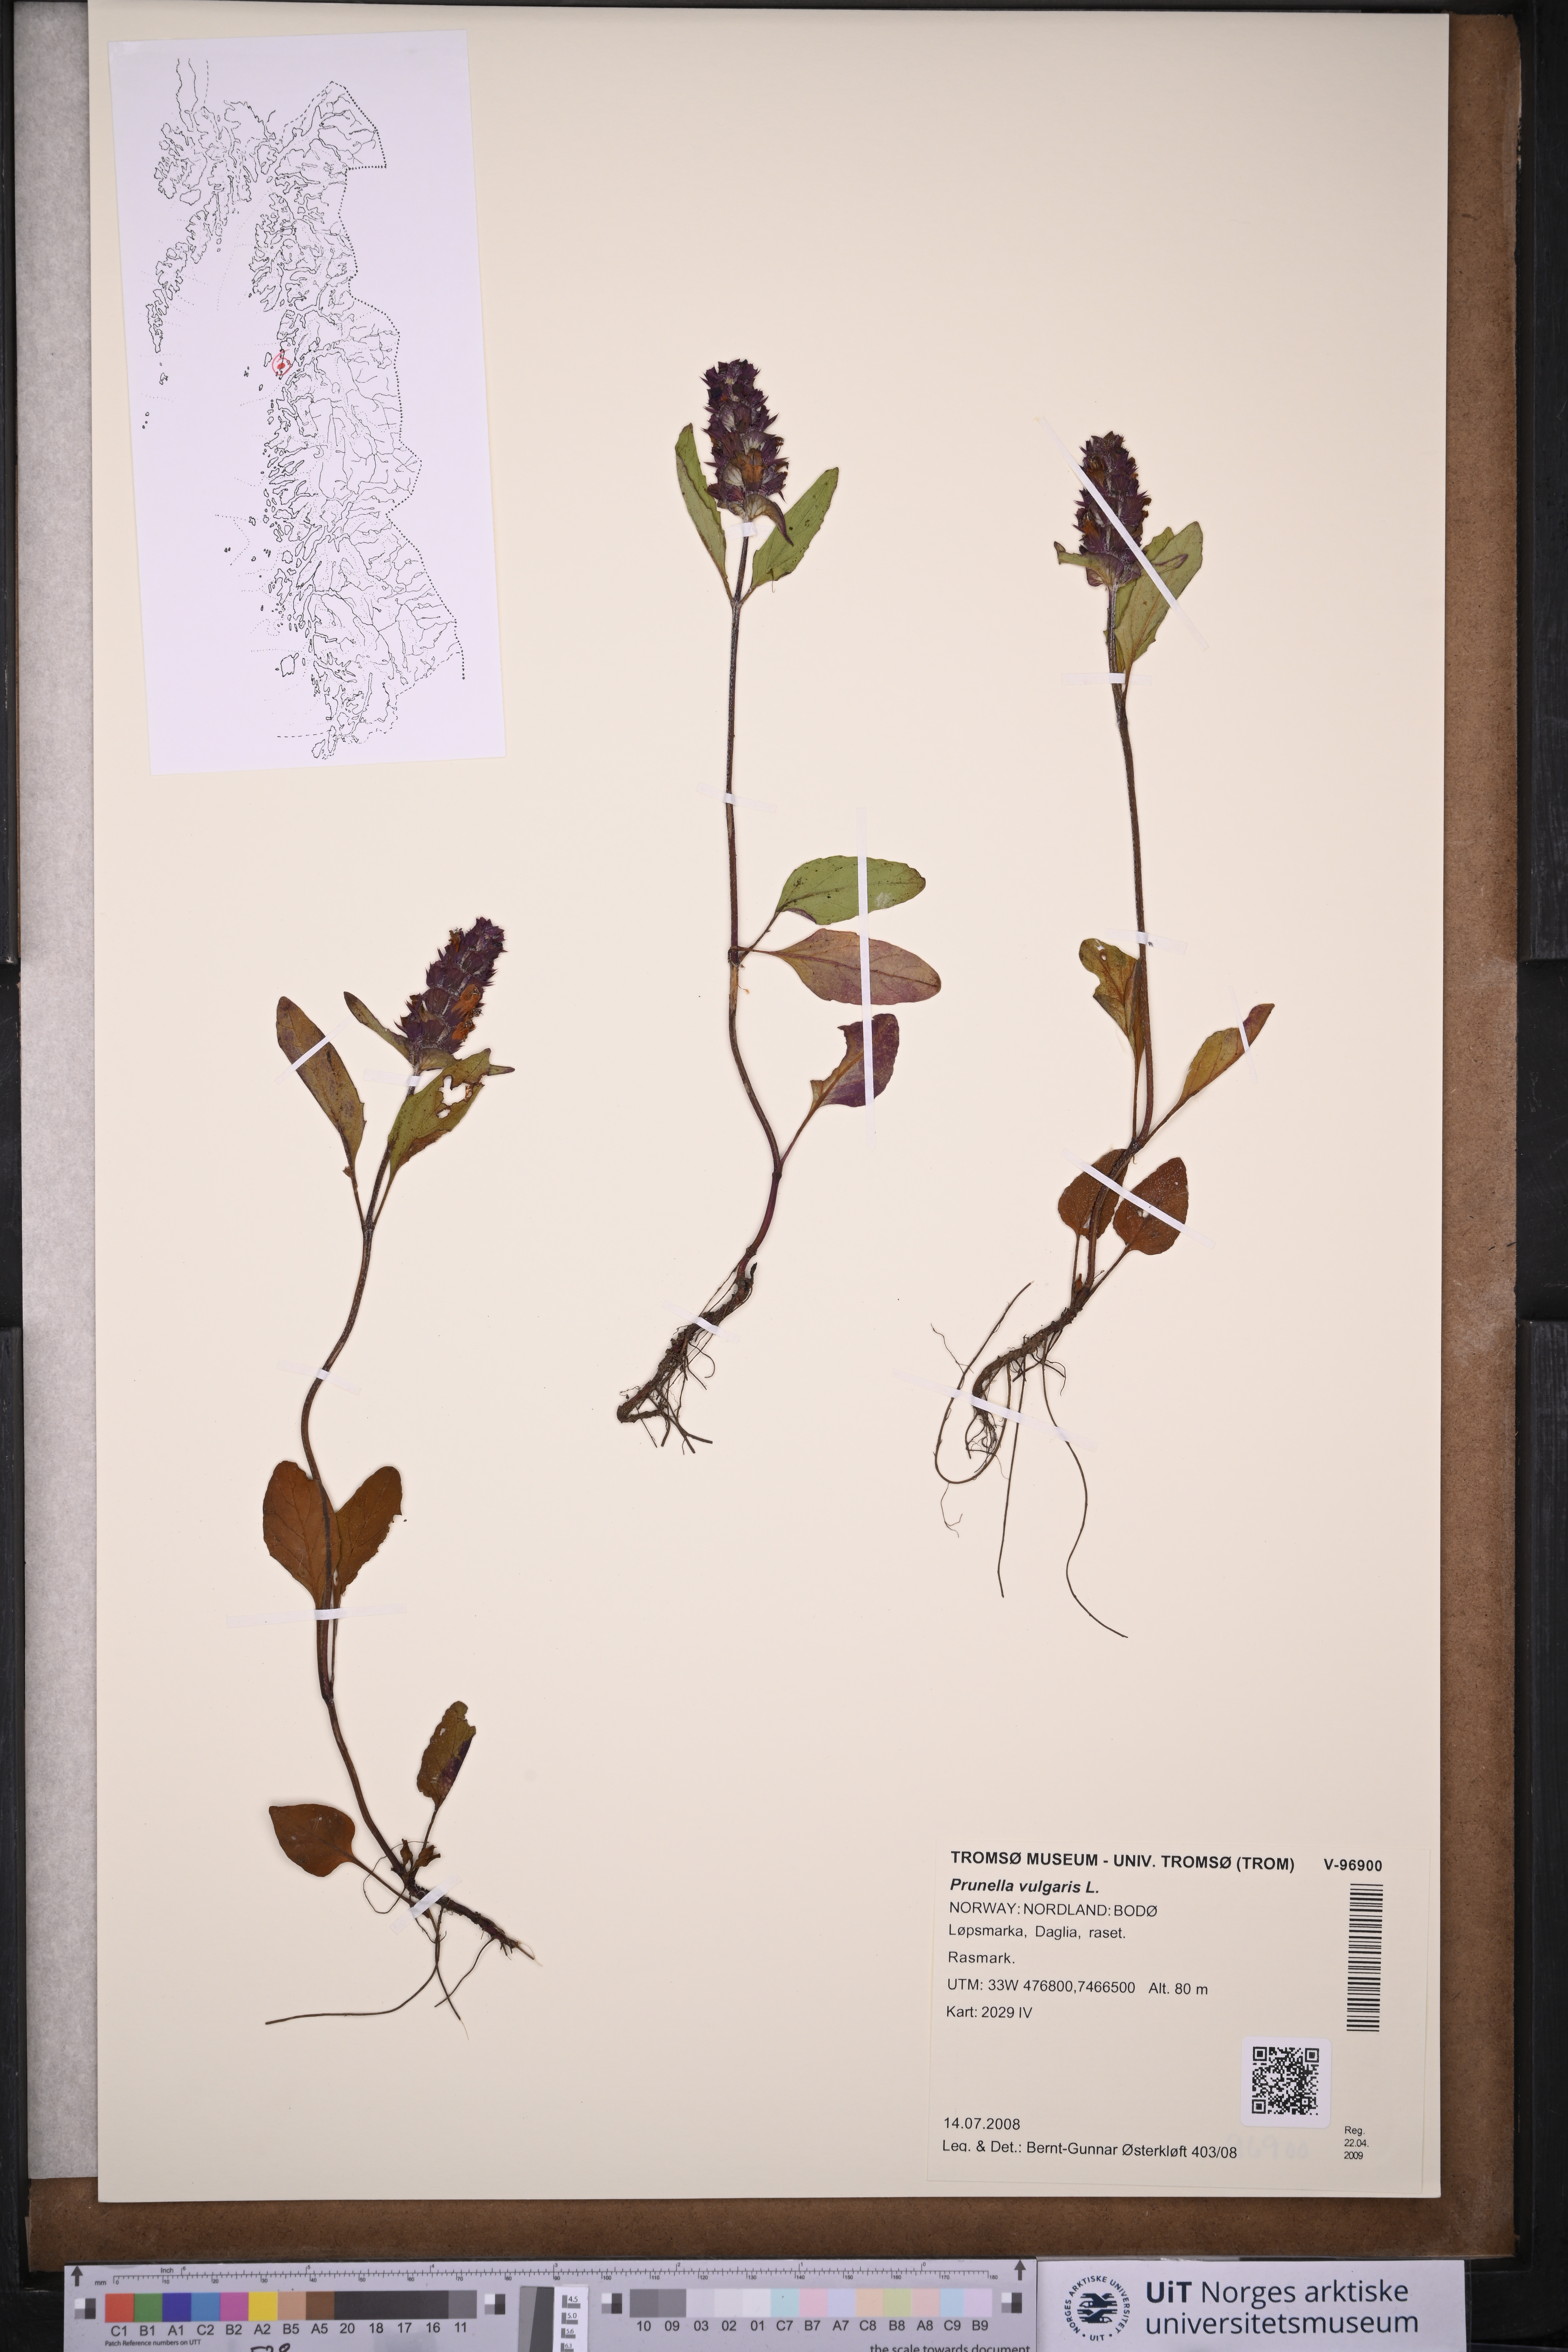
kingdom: Plantae
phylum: Tracheophyta
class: Magnoliopsida
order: Lamiales
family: Lamiaceae
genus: Prunella
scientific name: Prunella vulgaris
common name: Heal-all
